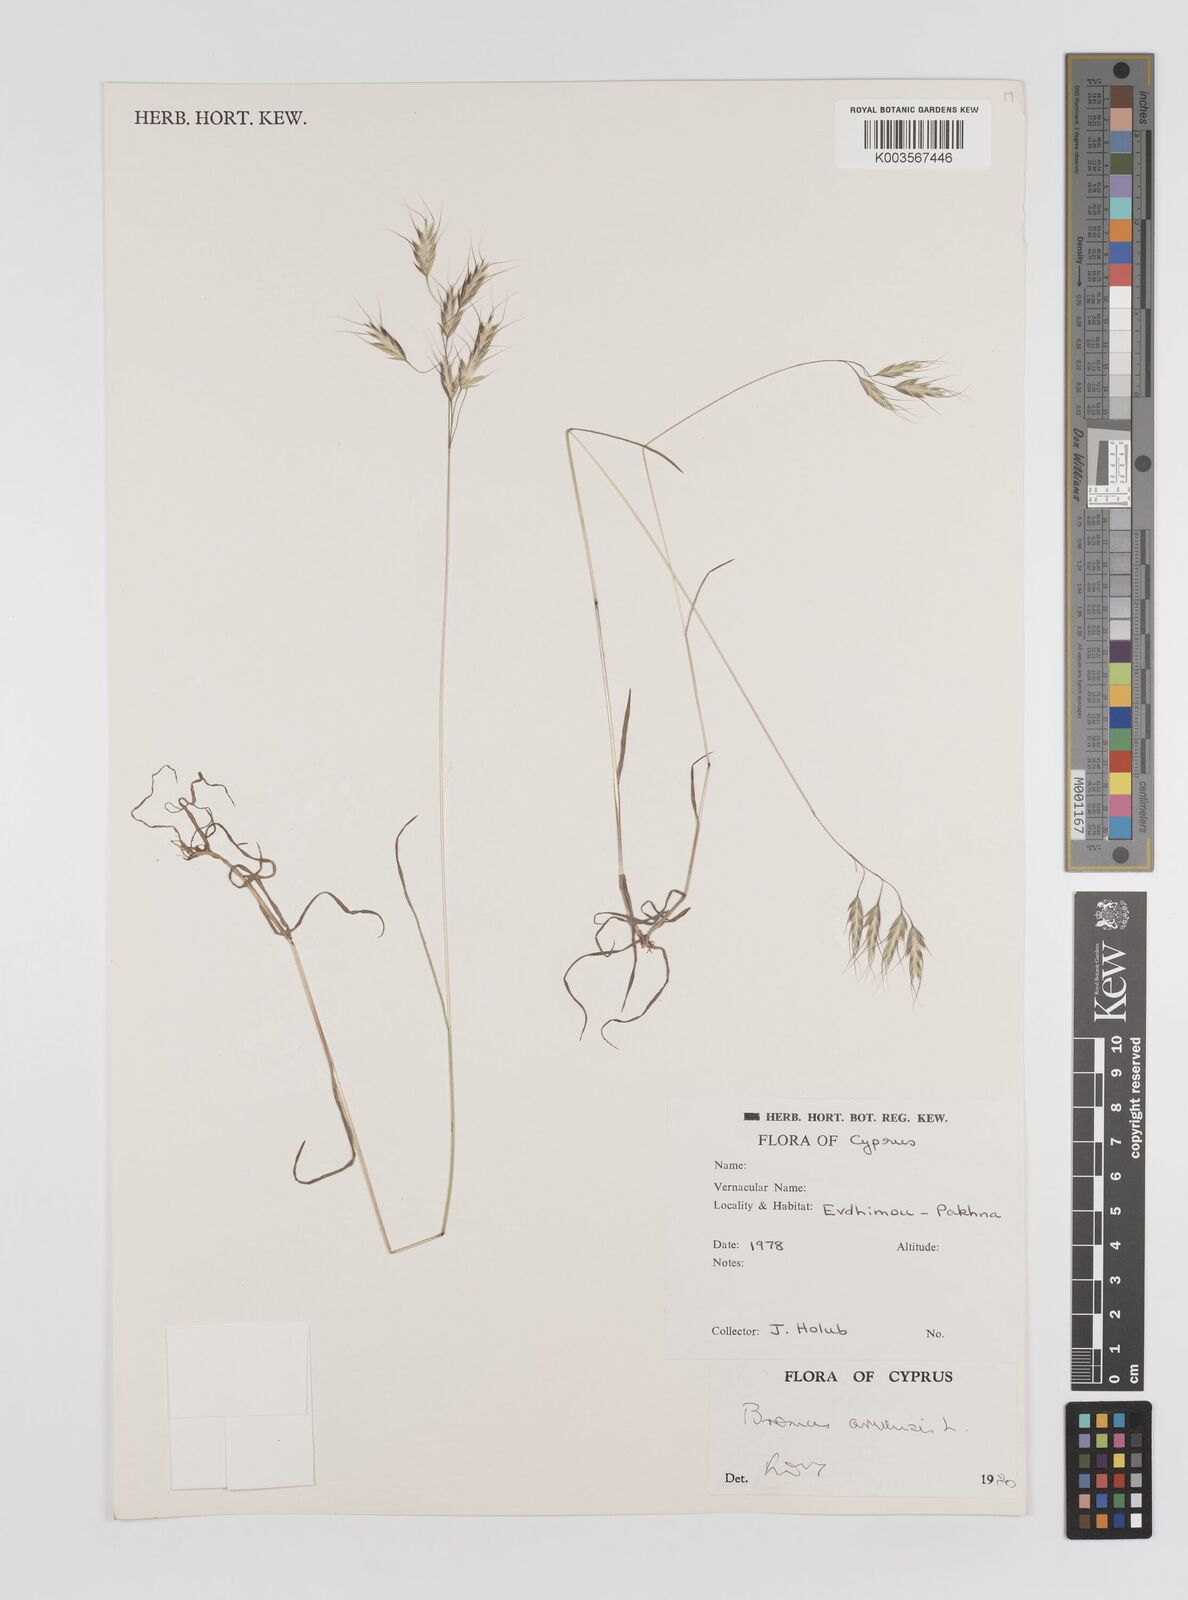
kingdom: Plantae
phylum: Tracheophyta
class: Liliopsida
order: Poales
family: Poaceae
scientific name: Poaceae
